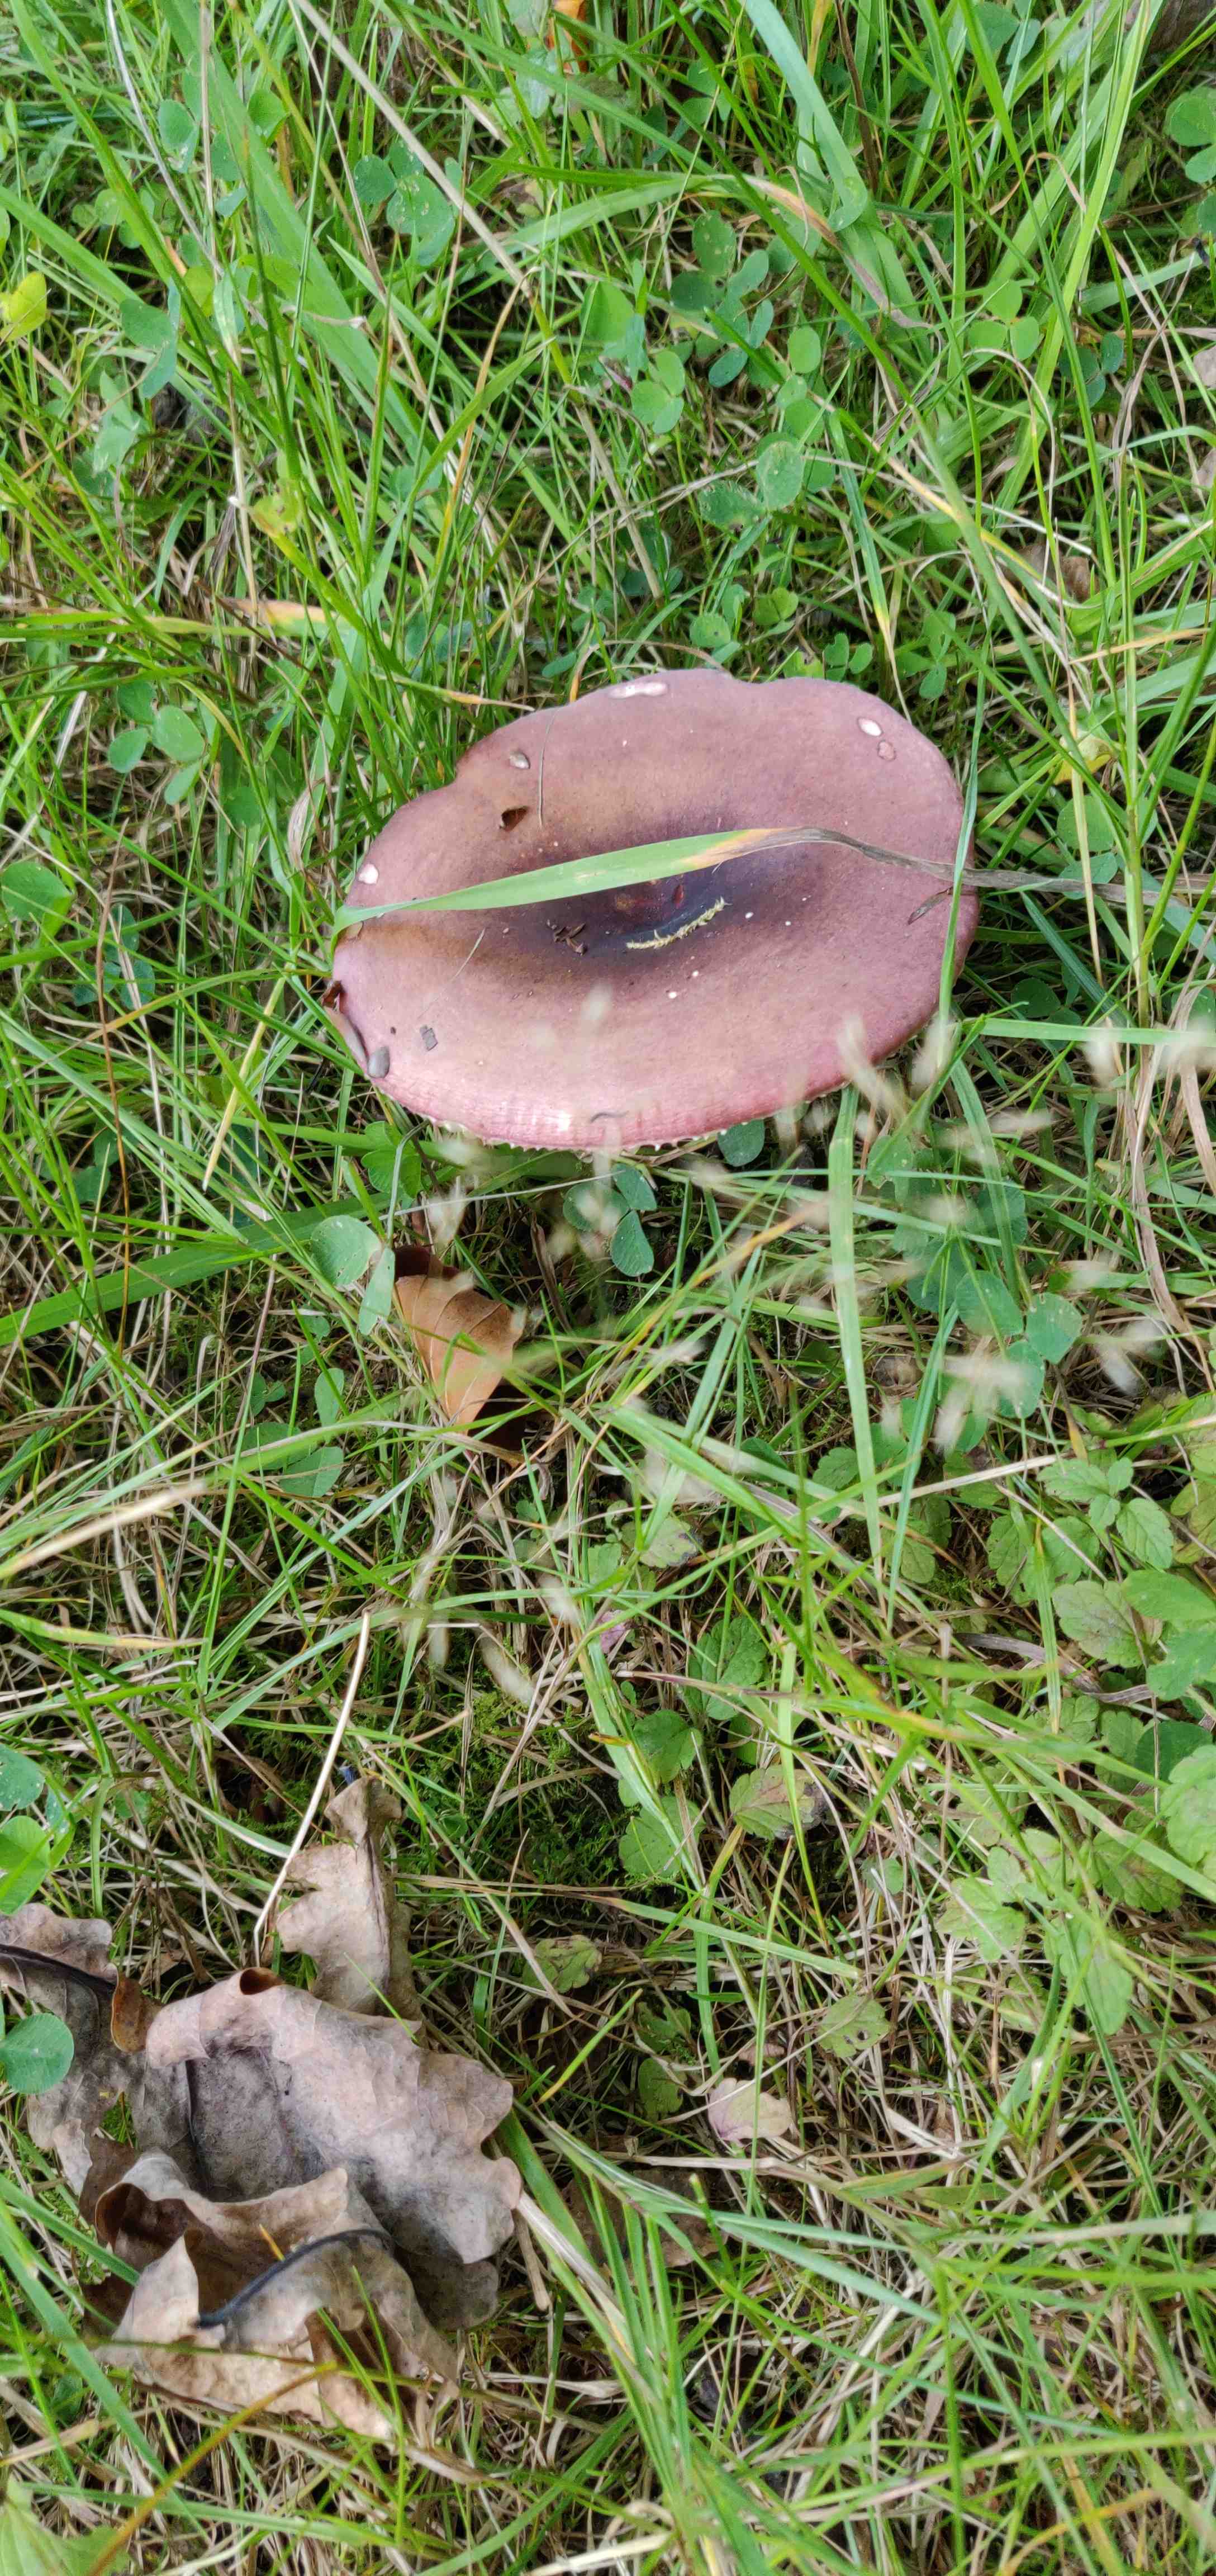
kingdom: Fungi
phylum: Basidiomycota
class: Agaricomycetes
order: Russulales
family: Russulaceae
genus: Russula
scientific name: Russula
